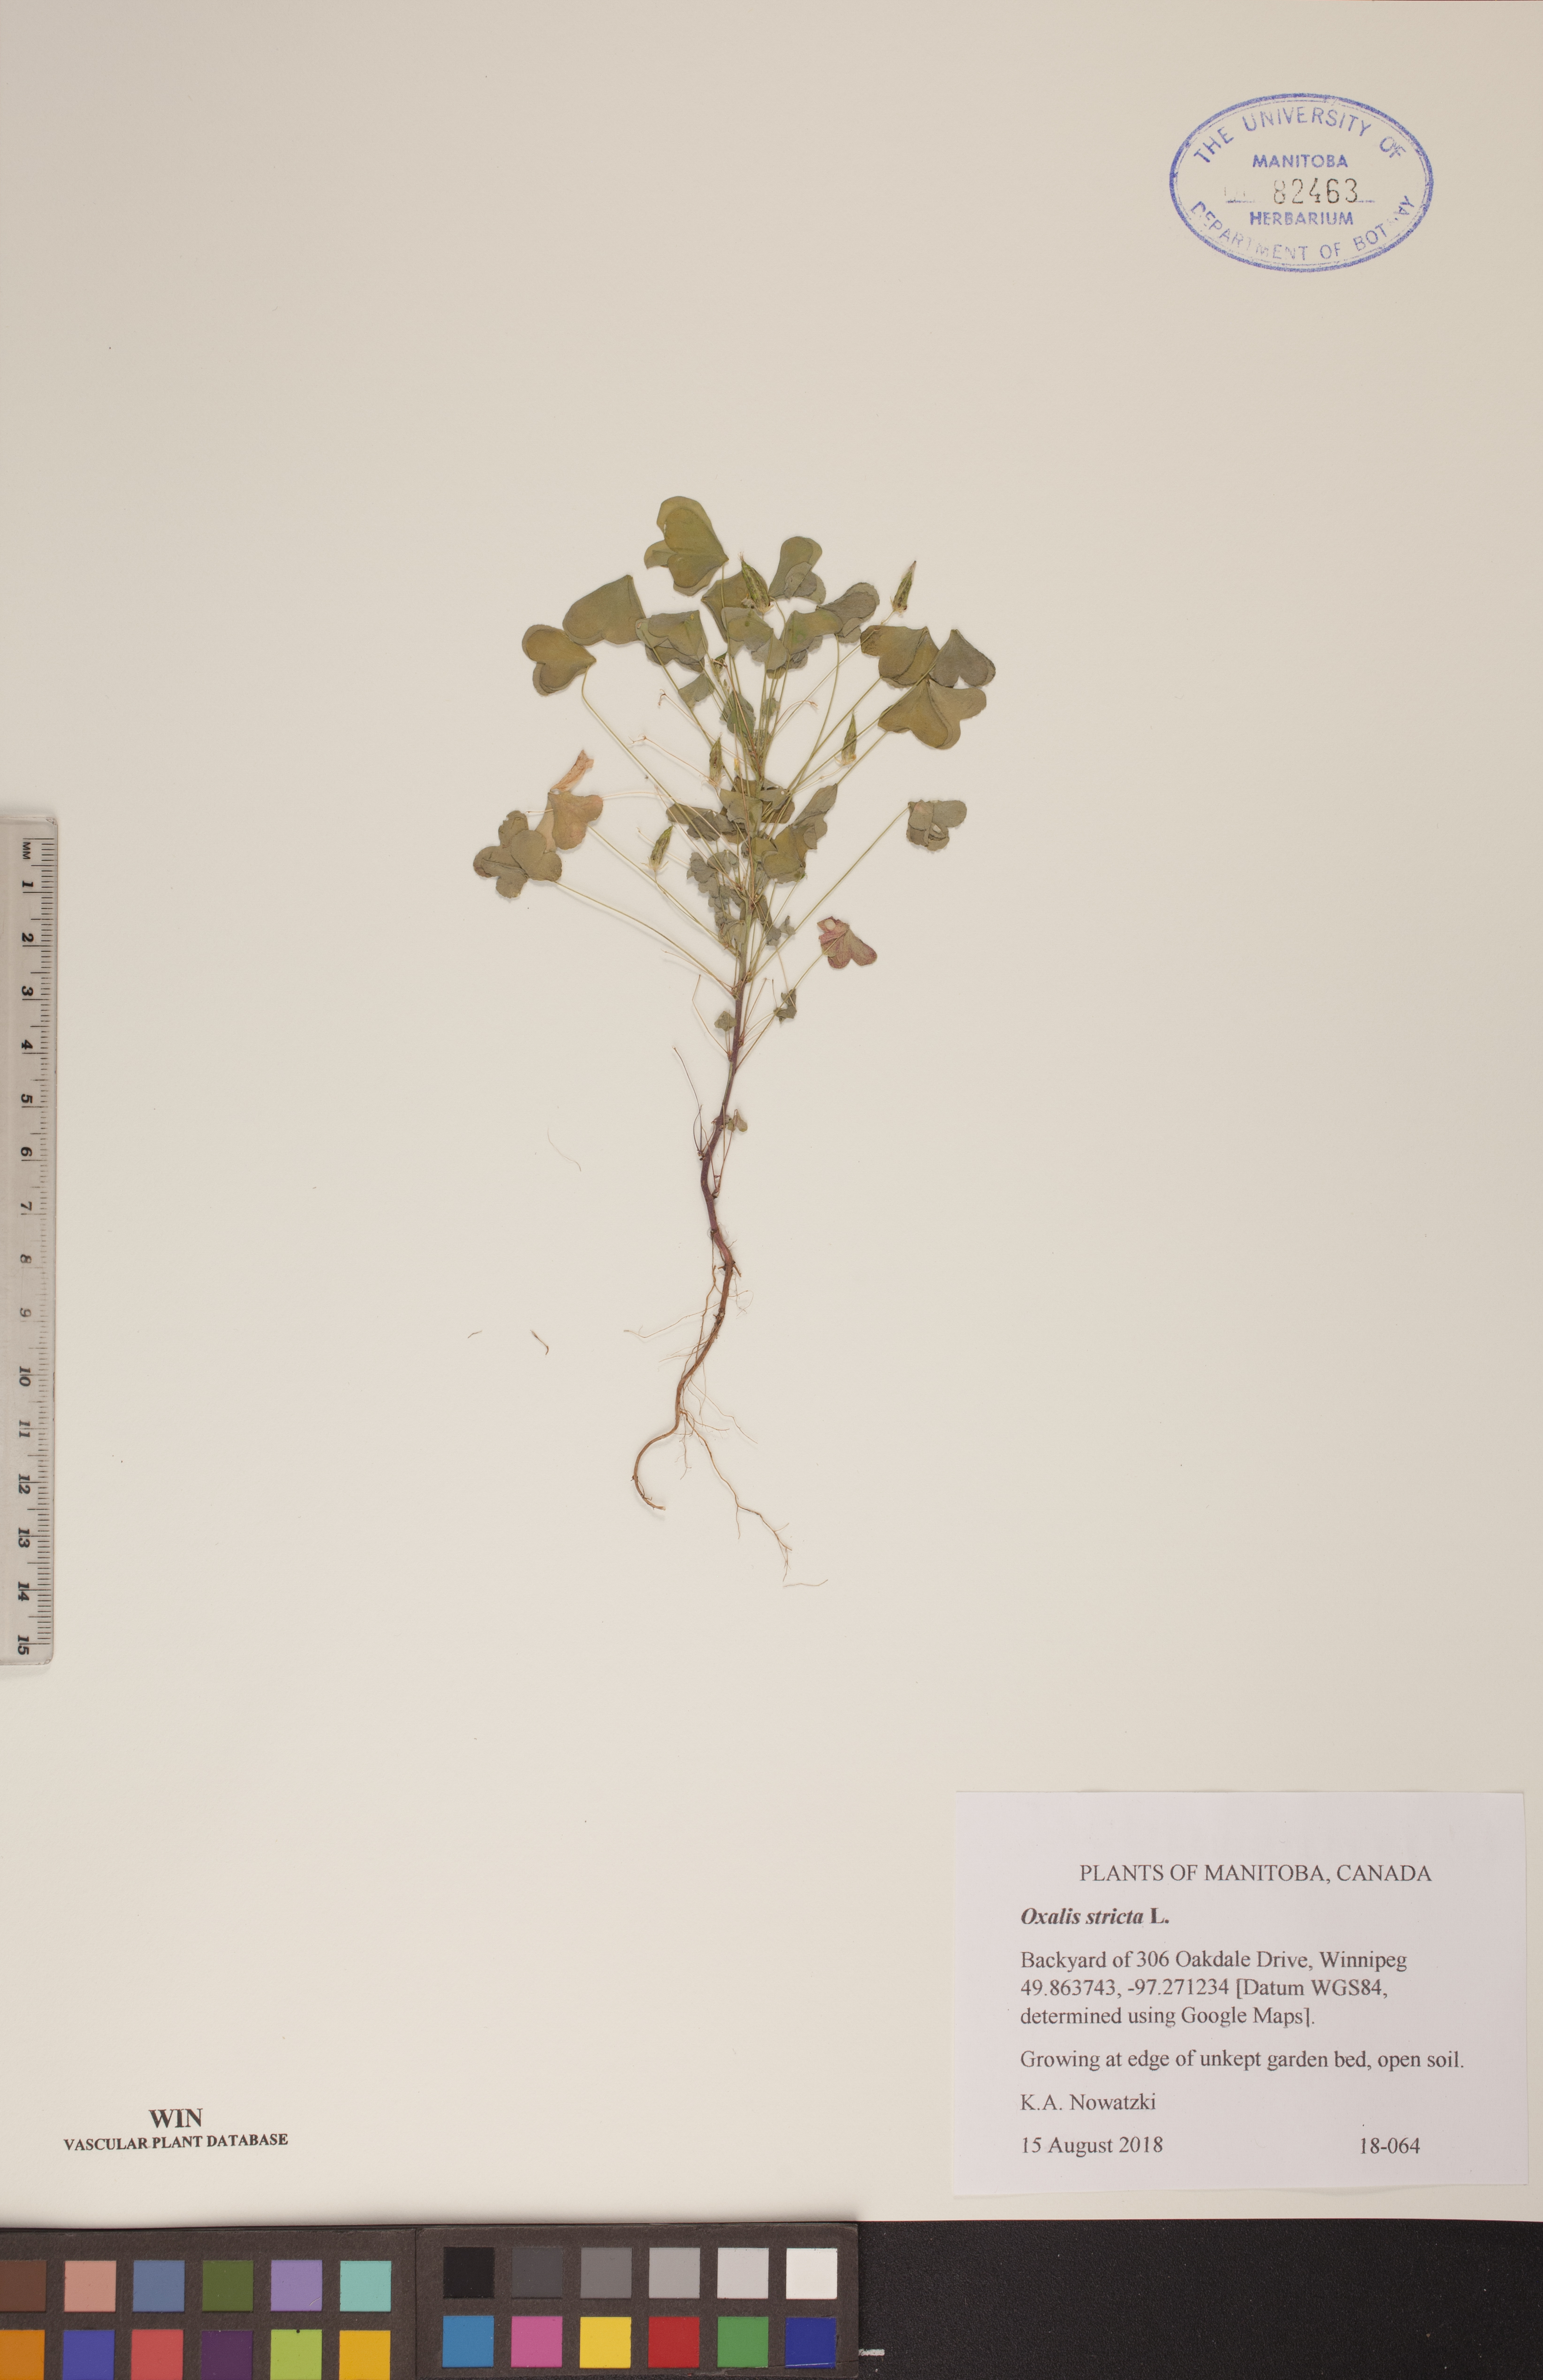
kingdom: Plantae
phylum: Tracheophyta
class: Magnoliopsida
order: Oxalidales
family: Oxalidaceae
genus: Oxalis
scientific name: Oxalis stricta
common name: Upright yellow-sorrel
